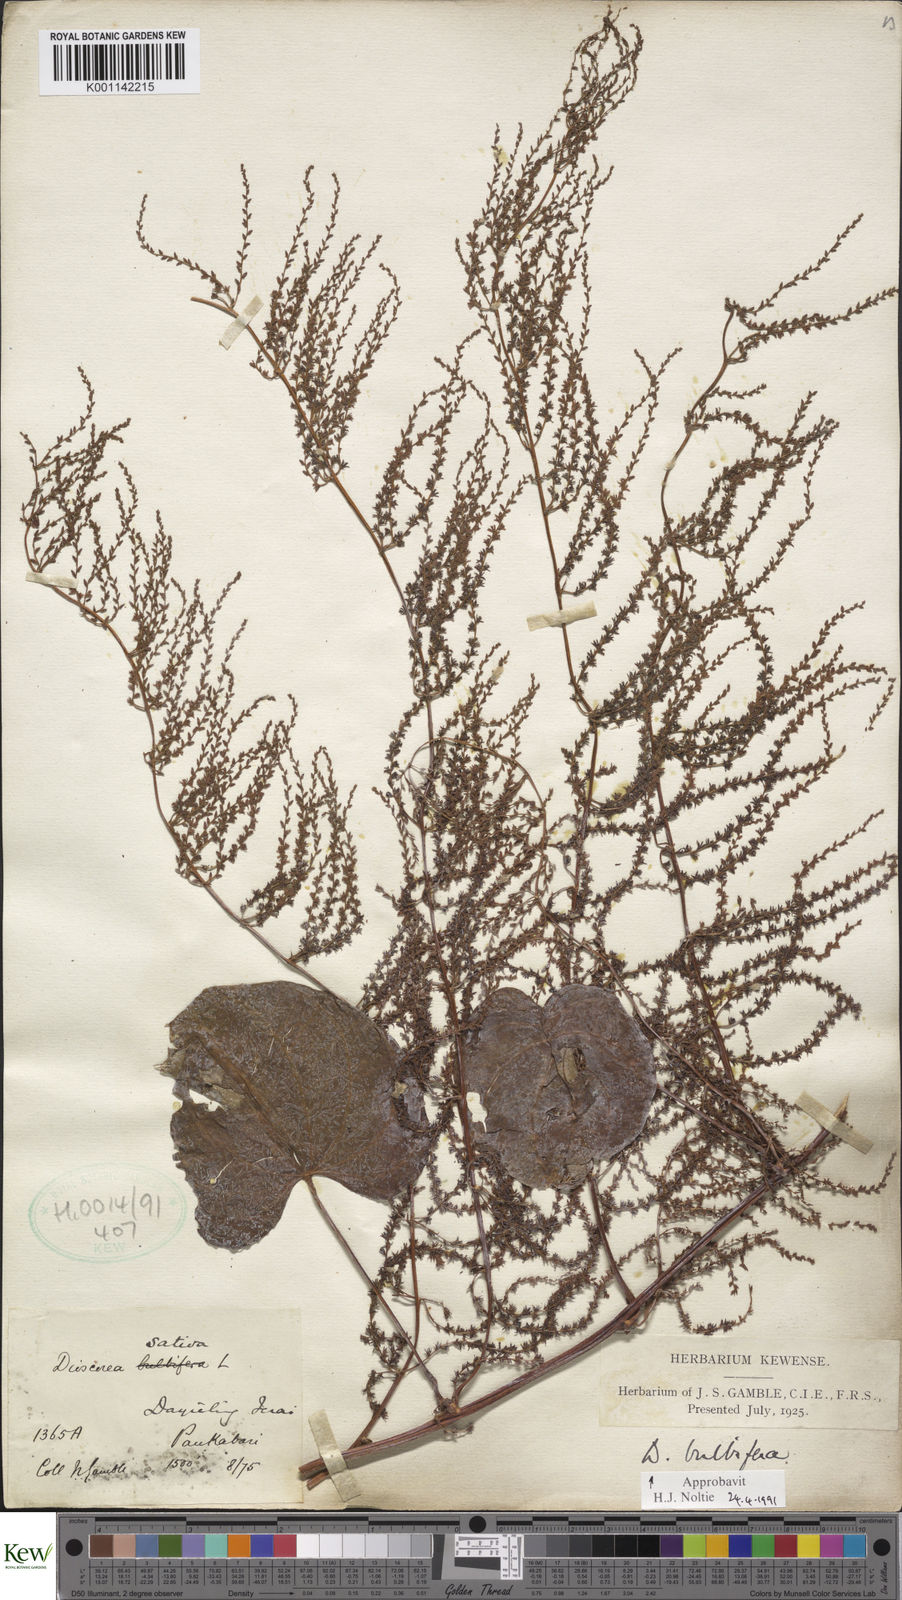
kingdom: Plantae
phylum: Tracheophyta
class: Liliopsida
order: Dioscoreales
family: Dioscoreaceae
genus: Dioscorea
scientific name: Dioscorea bulbifera
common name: Air yam
